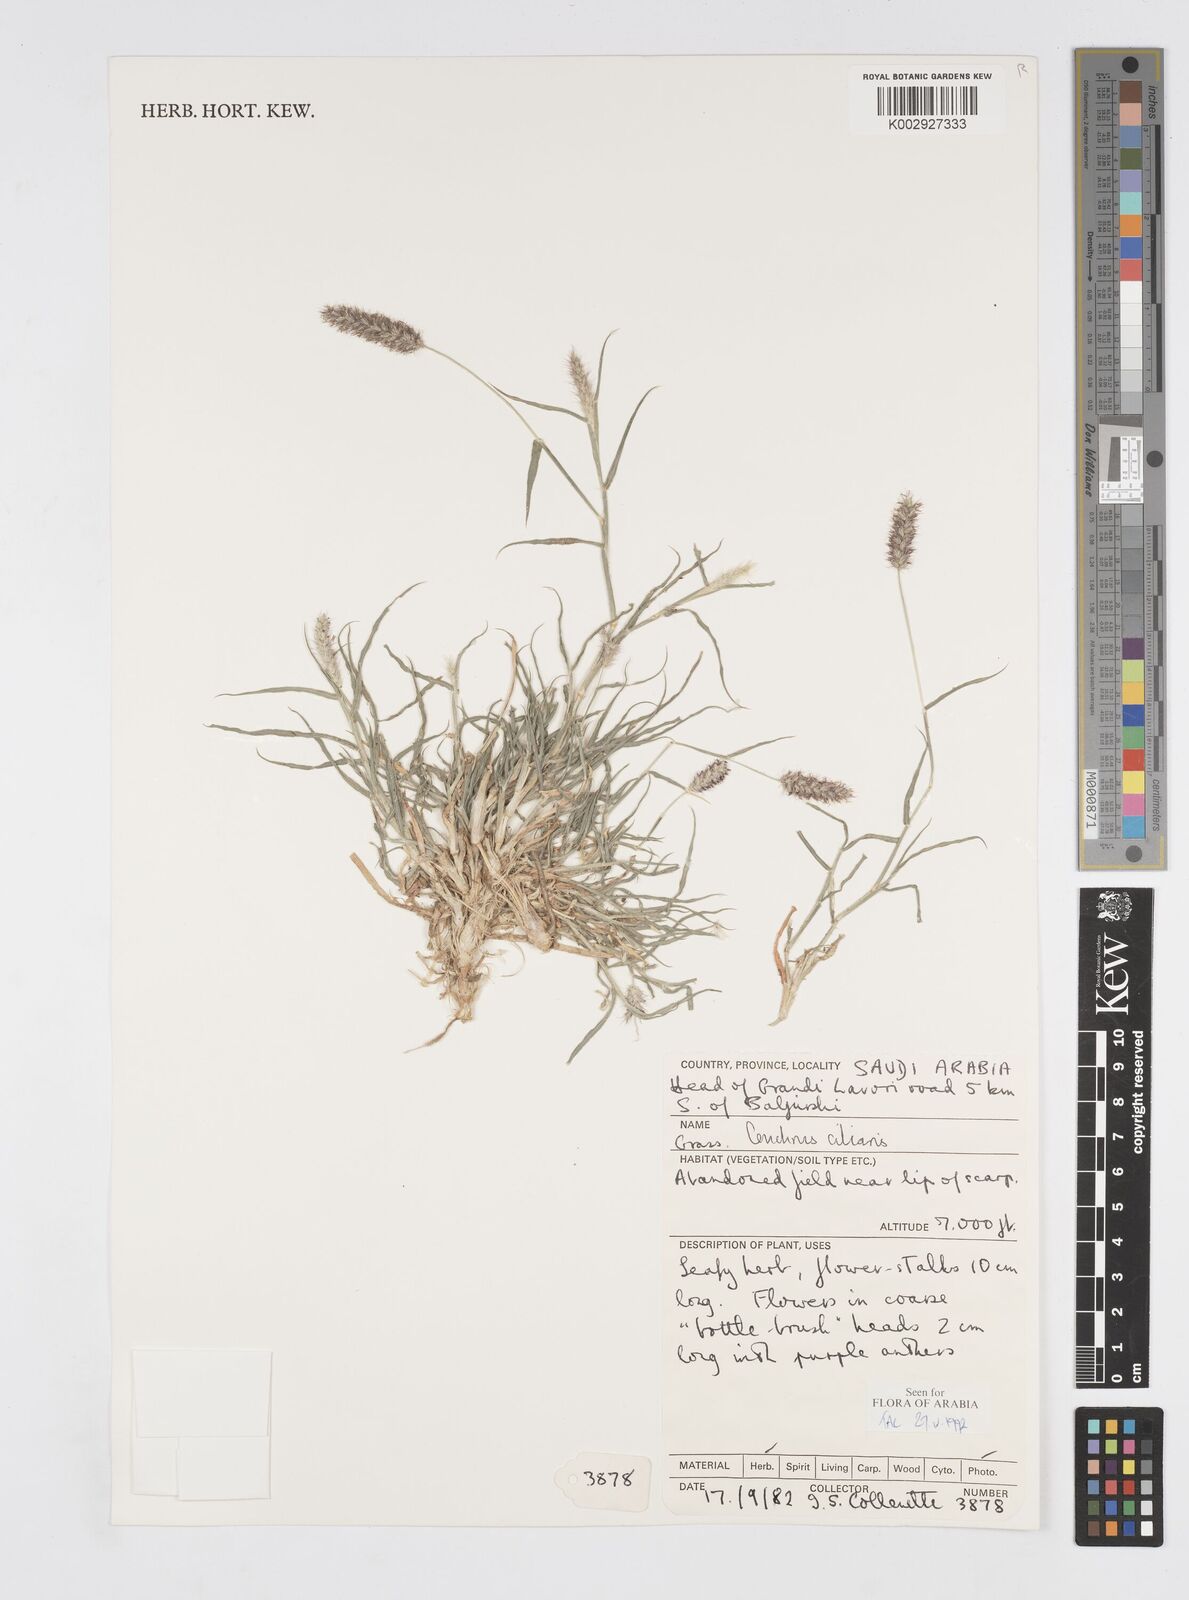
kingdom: Plantae
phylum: Tracheophyta
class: Liliopsida
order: Poales
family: Poaceae
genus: Cenchrus
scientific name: Cenchrus ciliaris
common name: Buffelgrass
